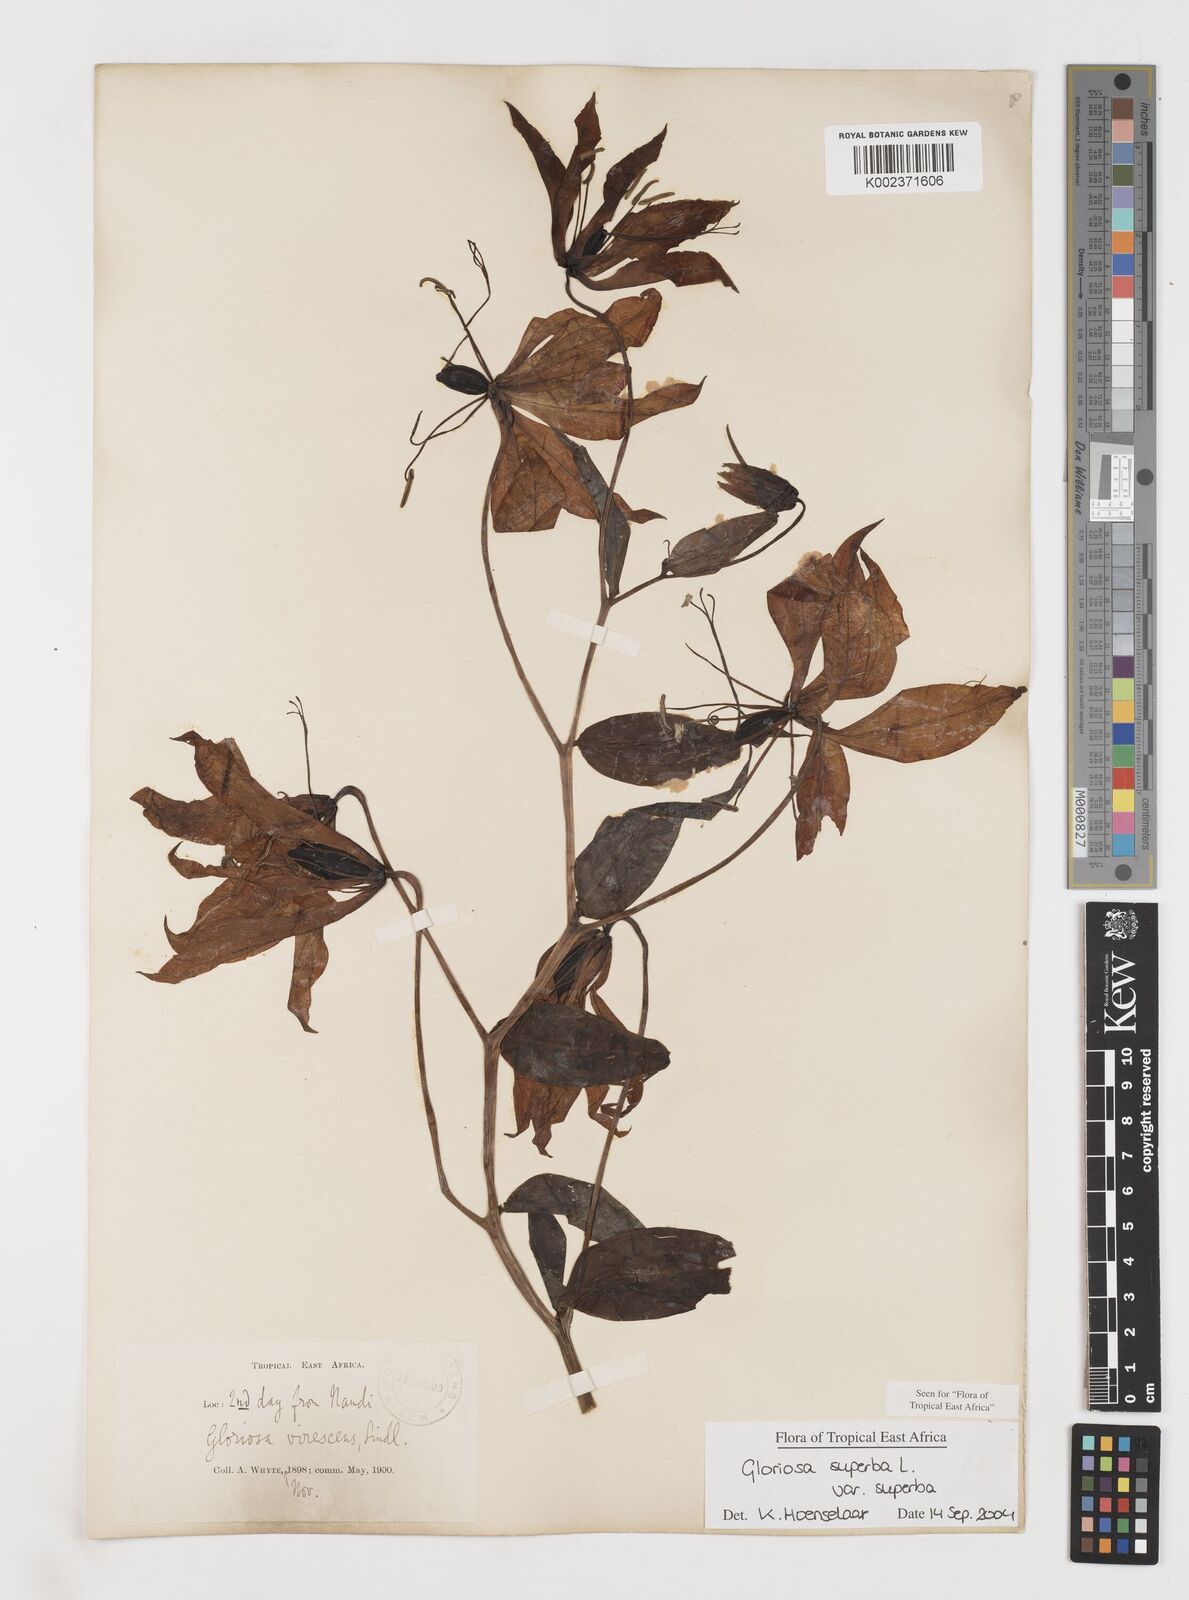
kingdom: Plantae
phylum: Tracheophyta
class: Liliopsida
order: Liliales
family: Colchicaceae
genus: Gloriosa
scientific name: Gloriosa simplex
